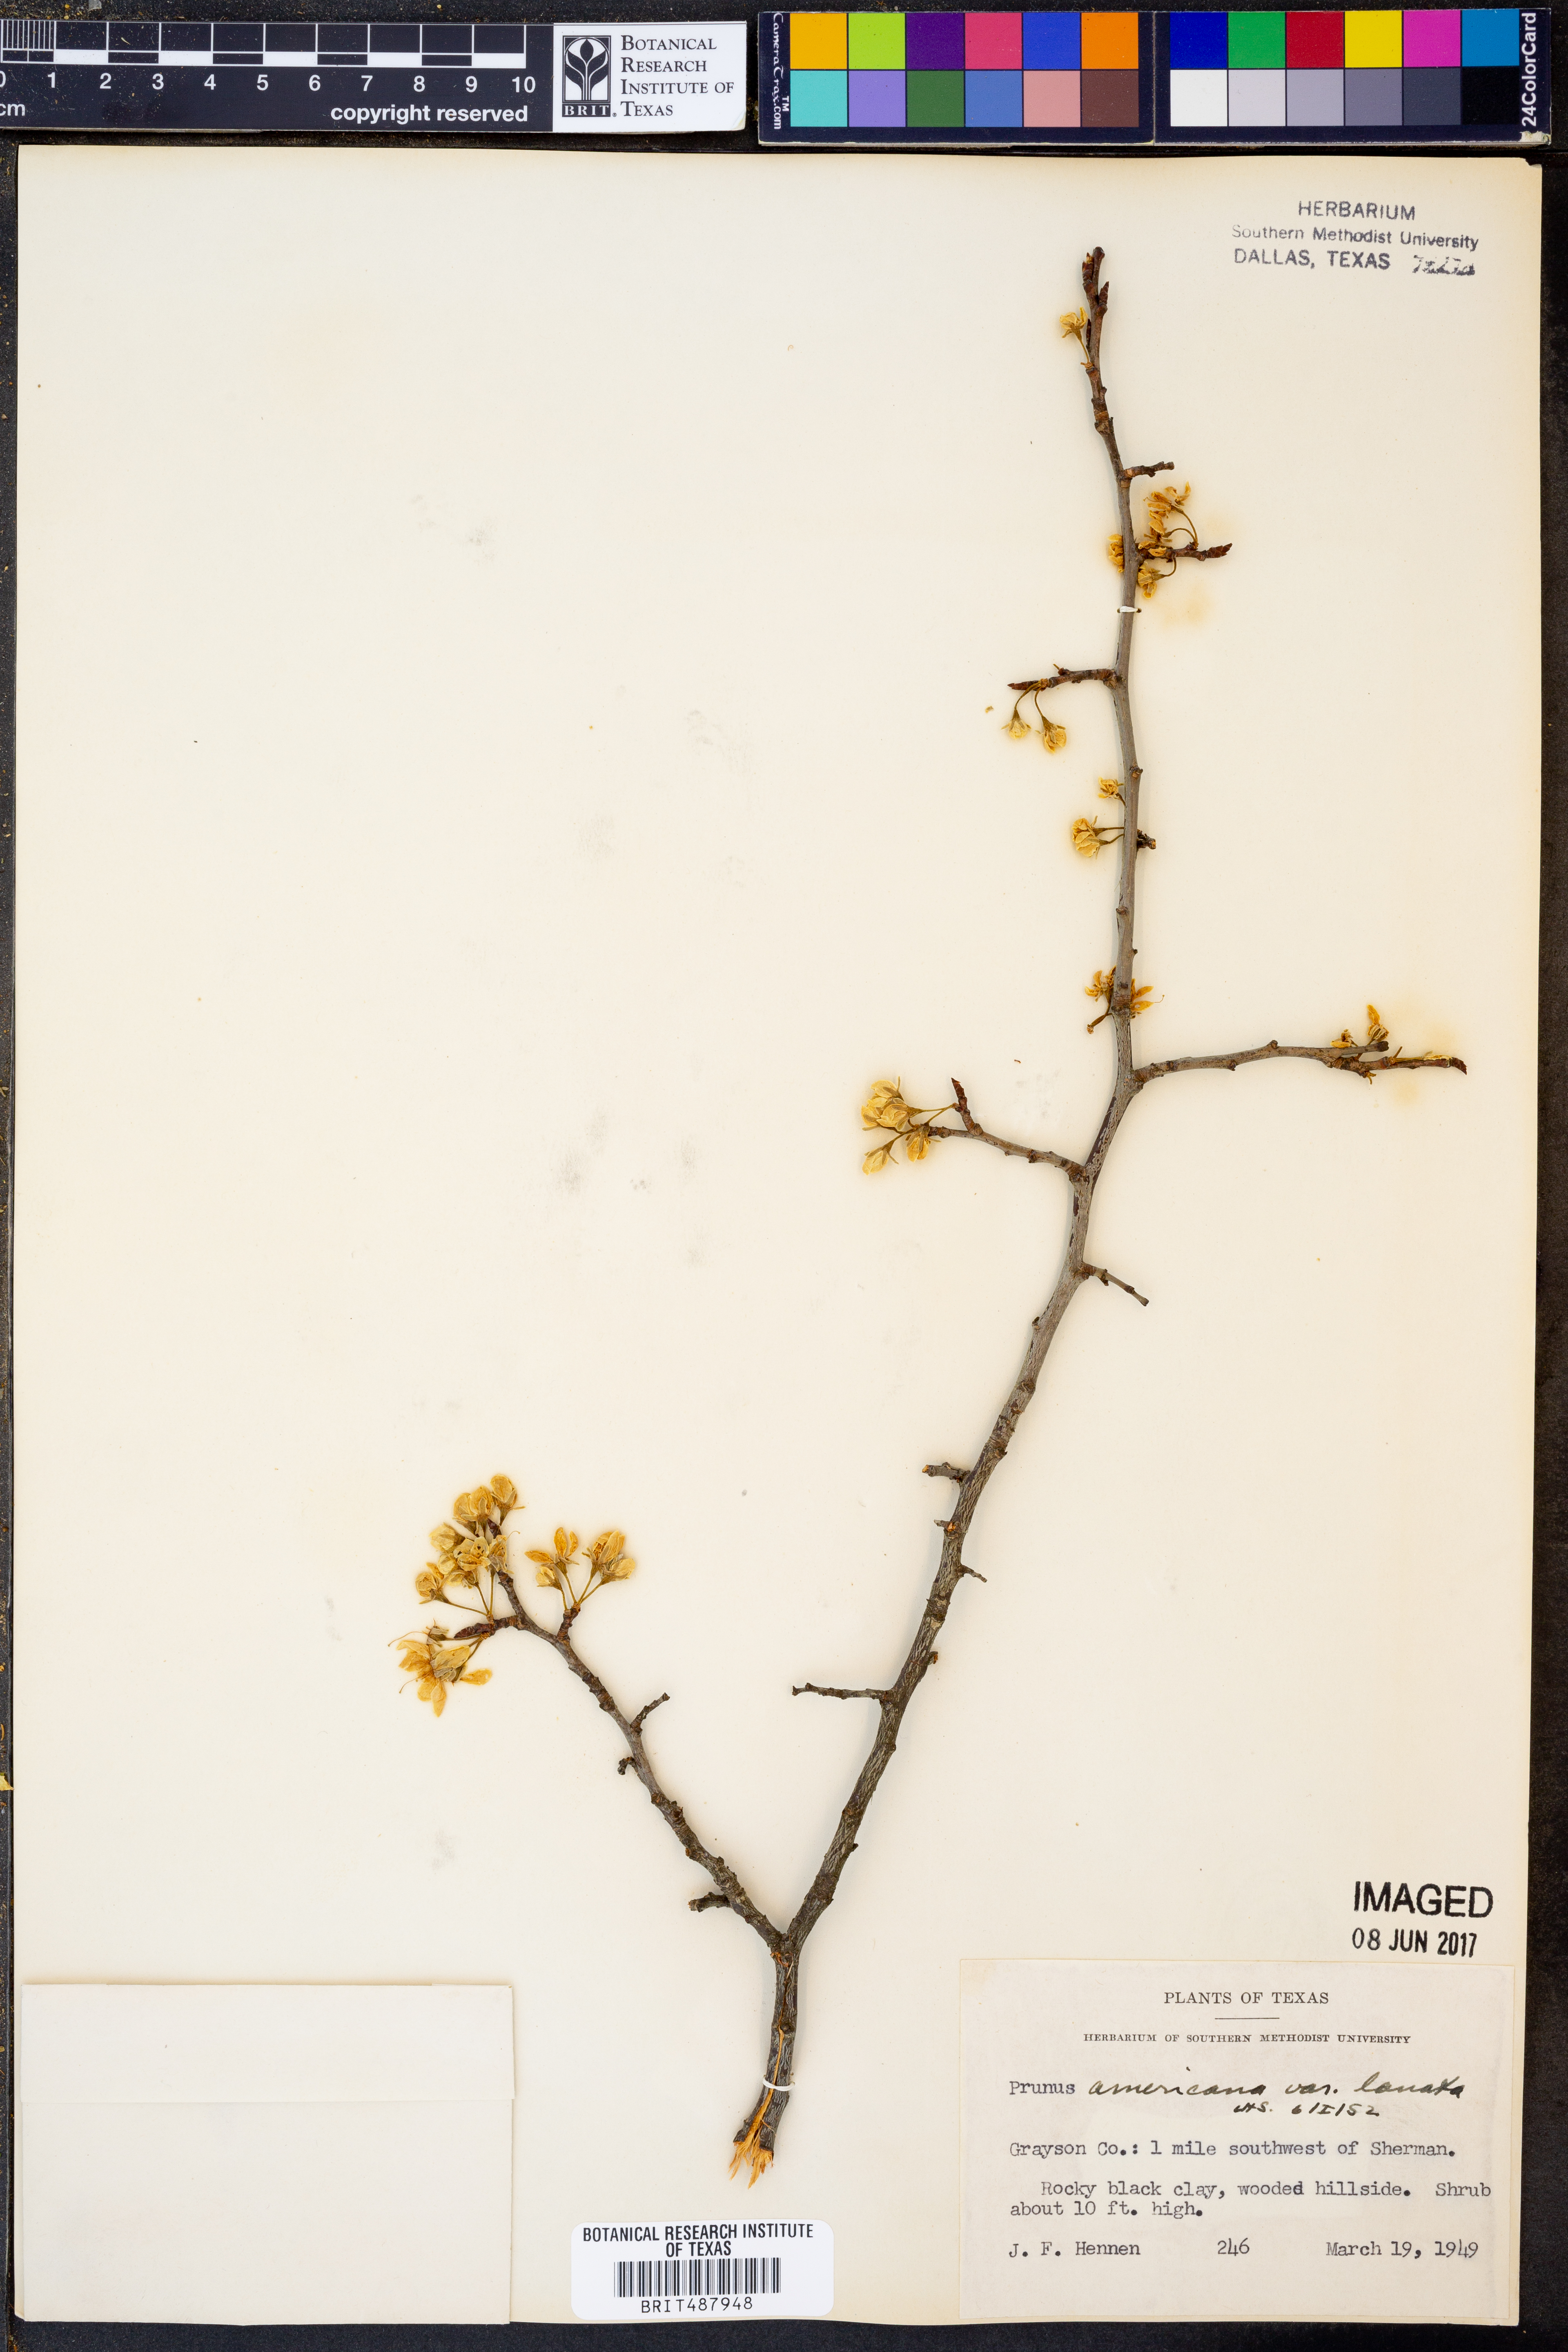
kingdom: Plantae
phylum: Tracheophyta
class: Magnoliopsida
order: Rosales
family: Rosaceae
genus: Prunus
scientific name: Prunus mexicana
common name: Mexican plum
